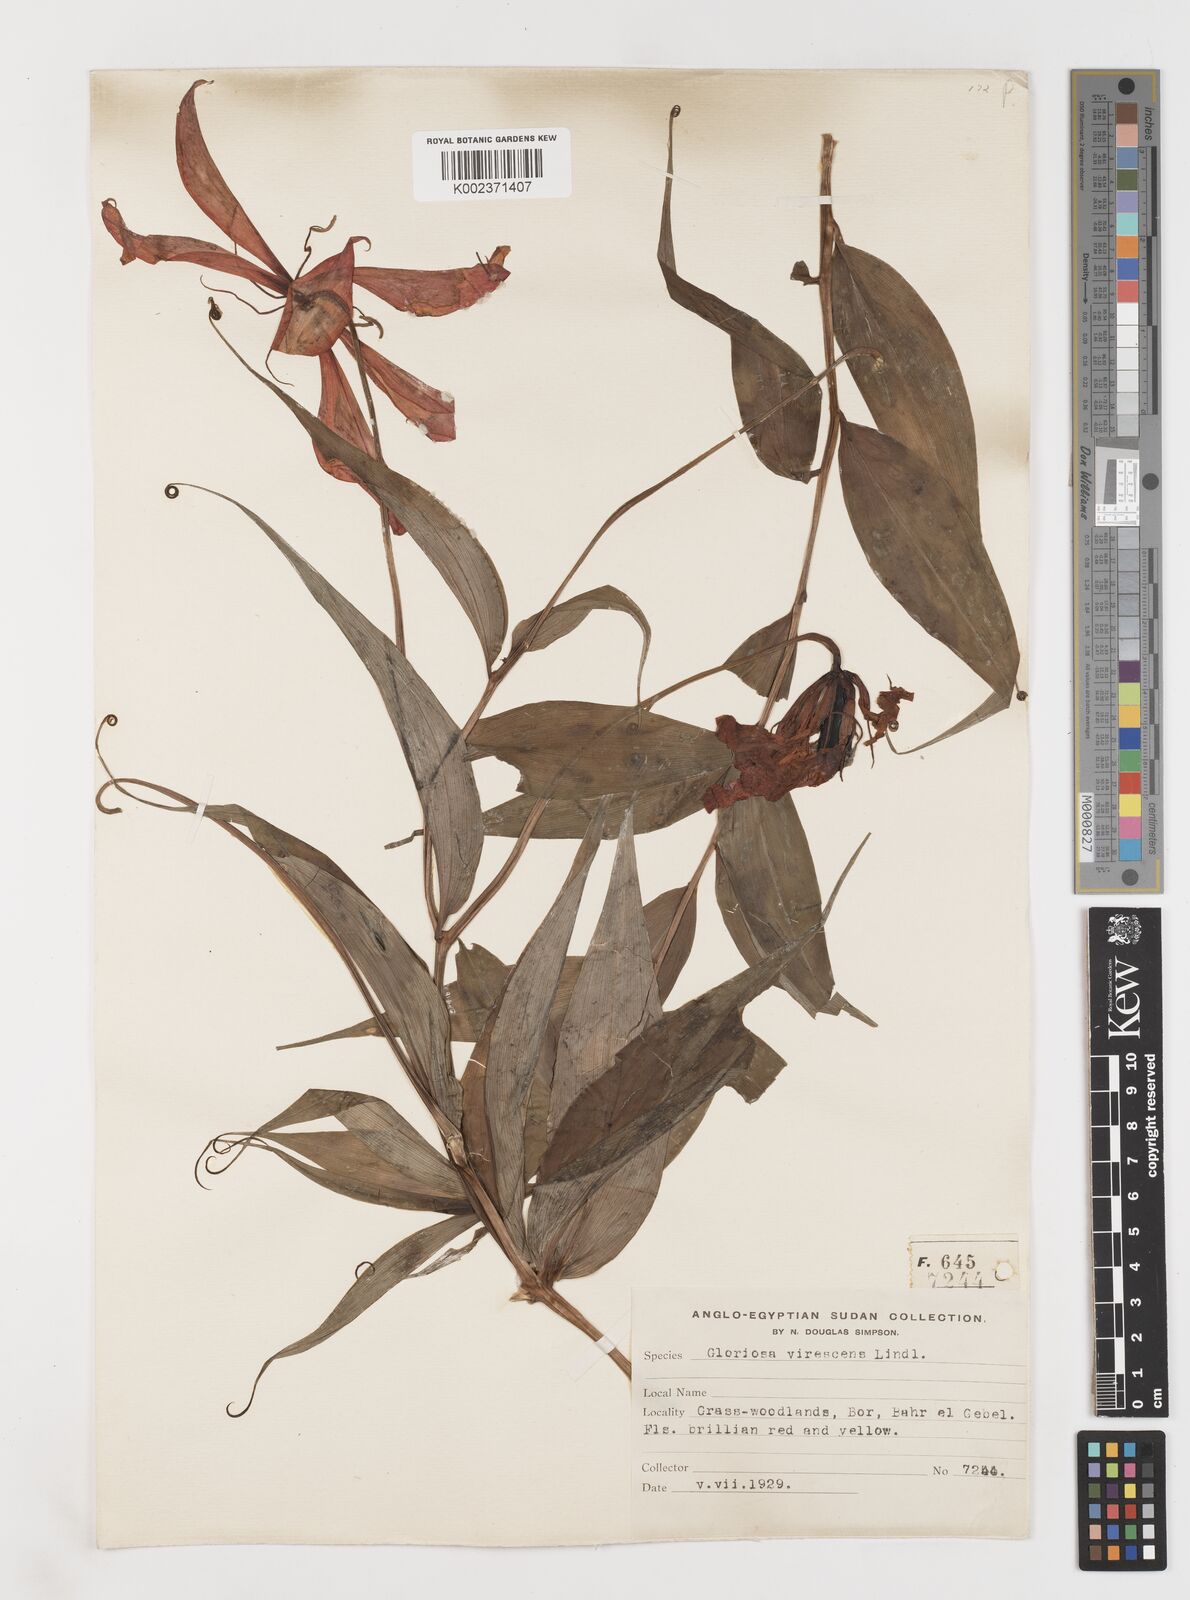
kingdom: Plantae
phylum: Tracheophyta
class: Liliopsida
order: Liliales
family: Colchicaceae
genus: Gloriosa
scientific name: Gloriosa simplex
